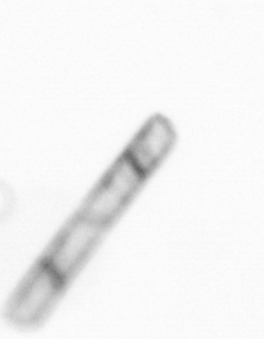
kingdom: Chromista
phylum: Ochrophyta
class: Bacillariophyceae
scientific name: Bacillariophyceae
